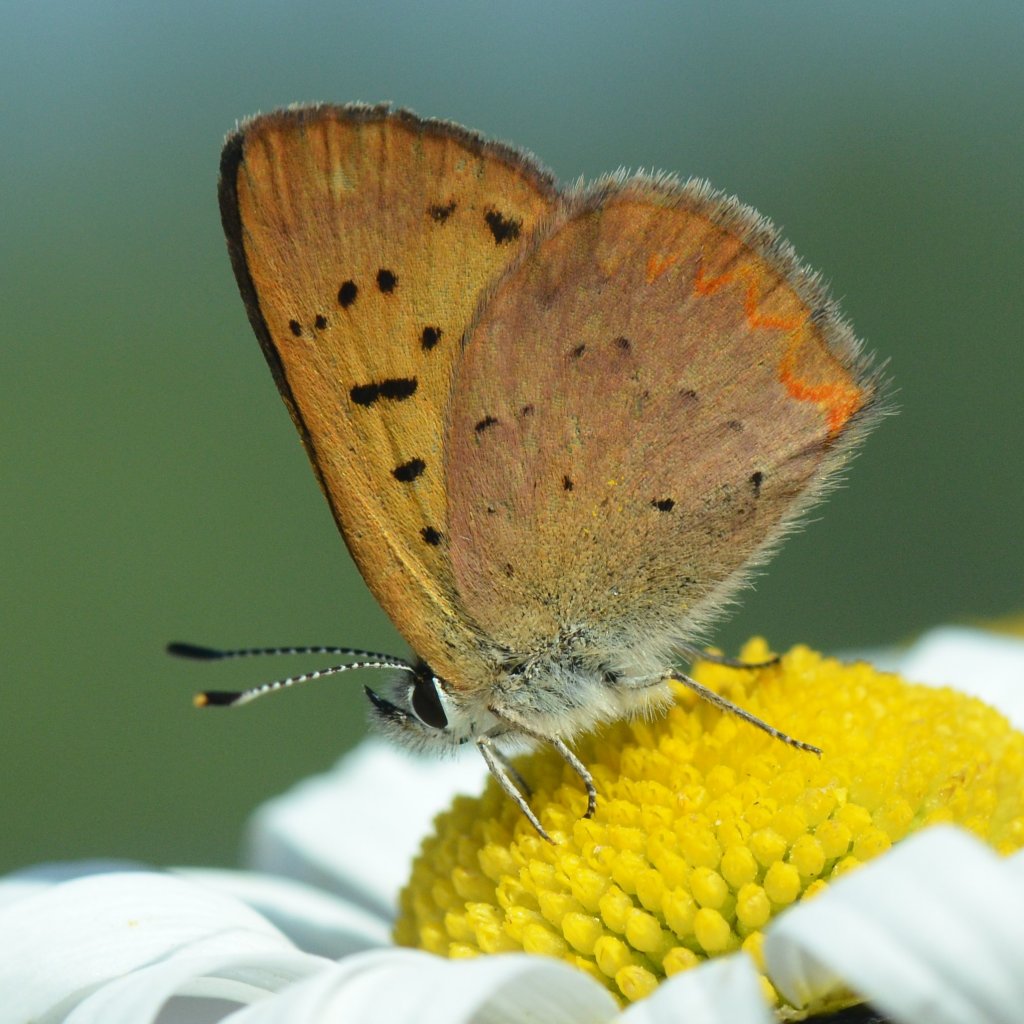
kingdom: Animalia
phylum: Arthropoda
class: Insecta
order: Lepidoptera
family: Lycaenidae
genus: Epidemia
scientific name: Epidemia dorcas
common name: Dorcas Copper
